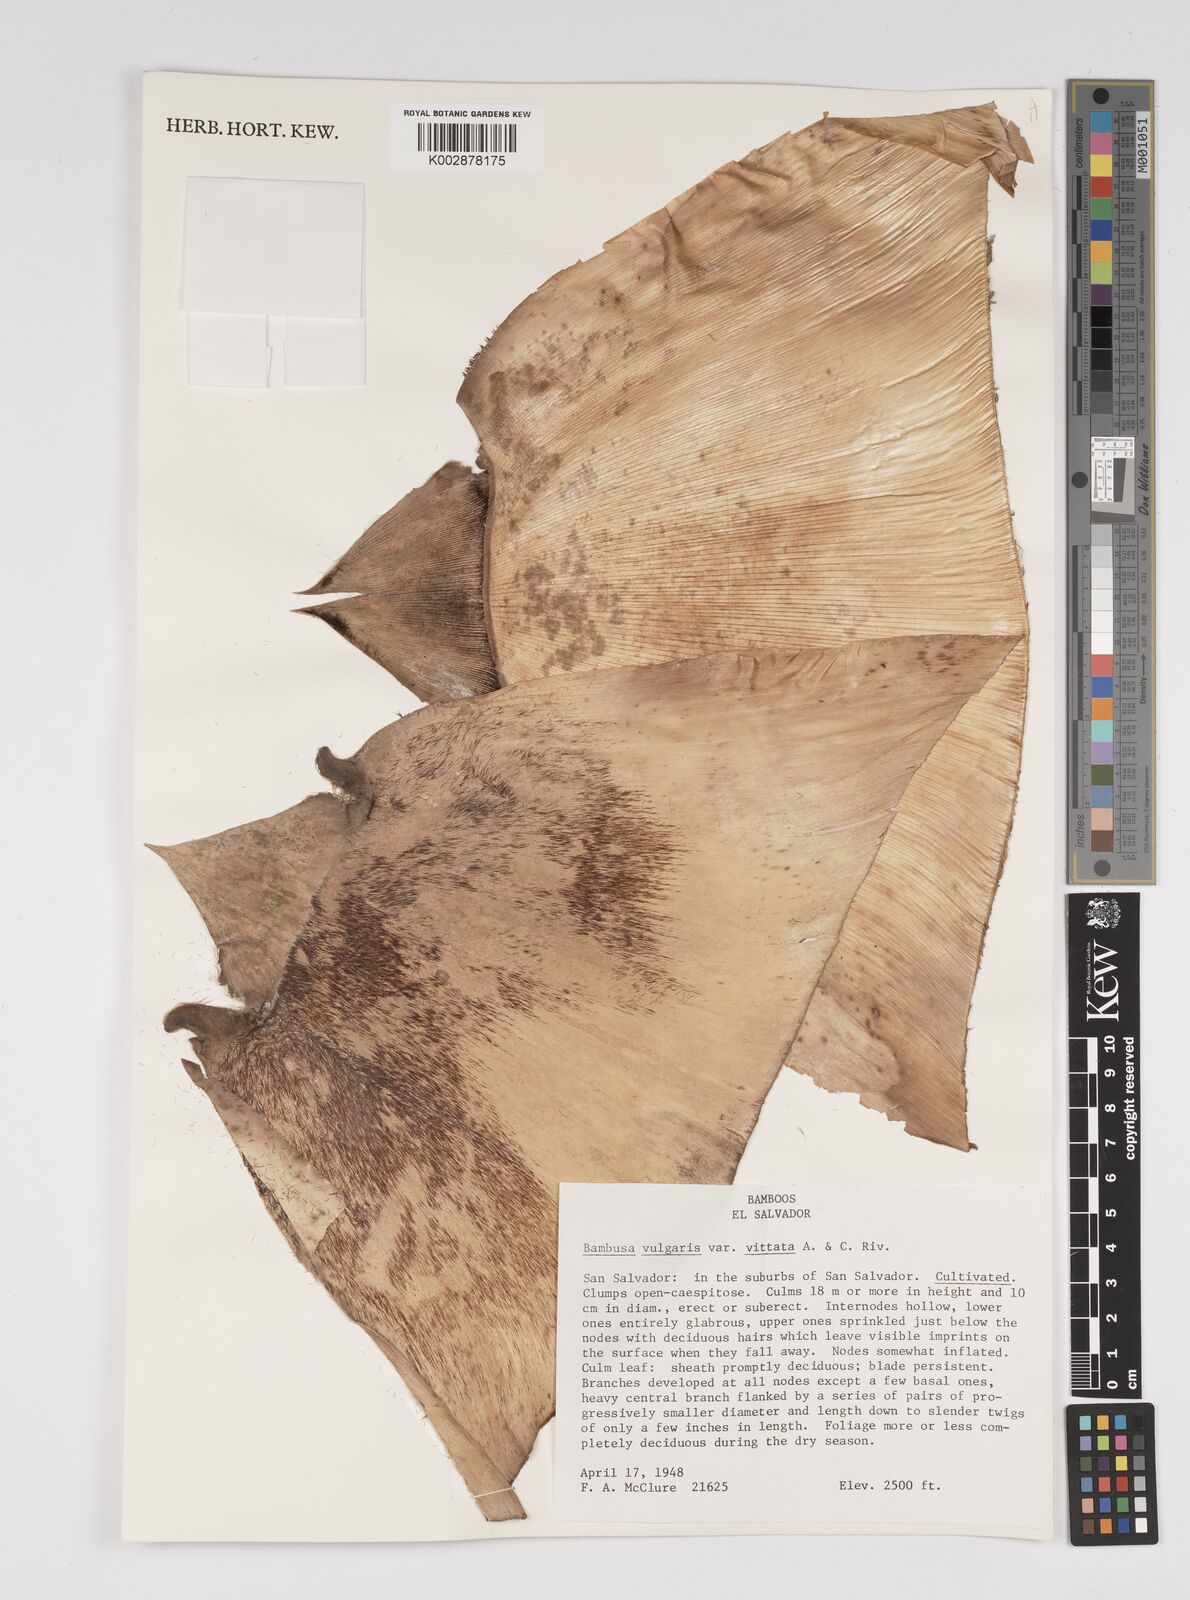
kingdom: Plantae
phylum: Tracheophyta
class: Liliopsida
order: Poales
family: Poaceae
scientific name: Poaceae
